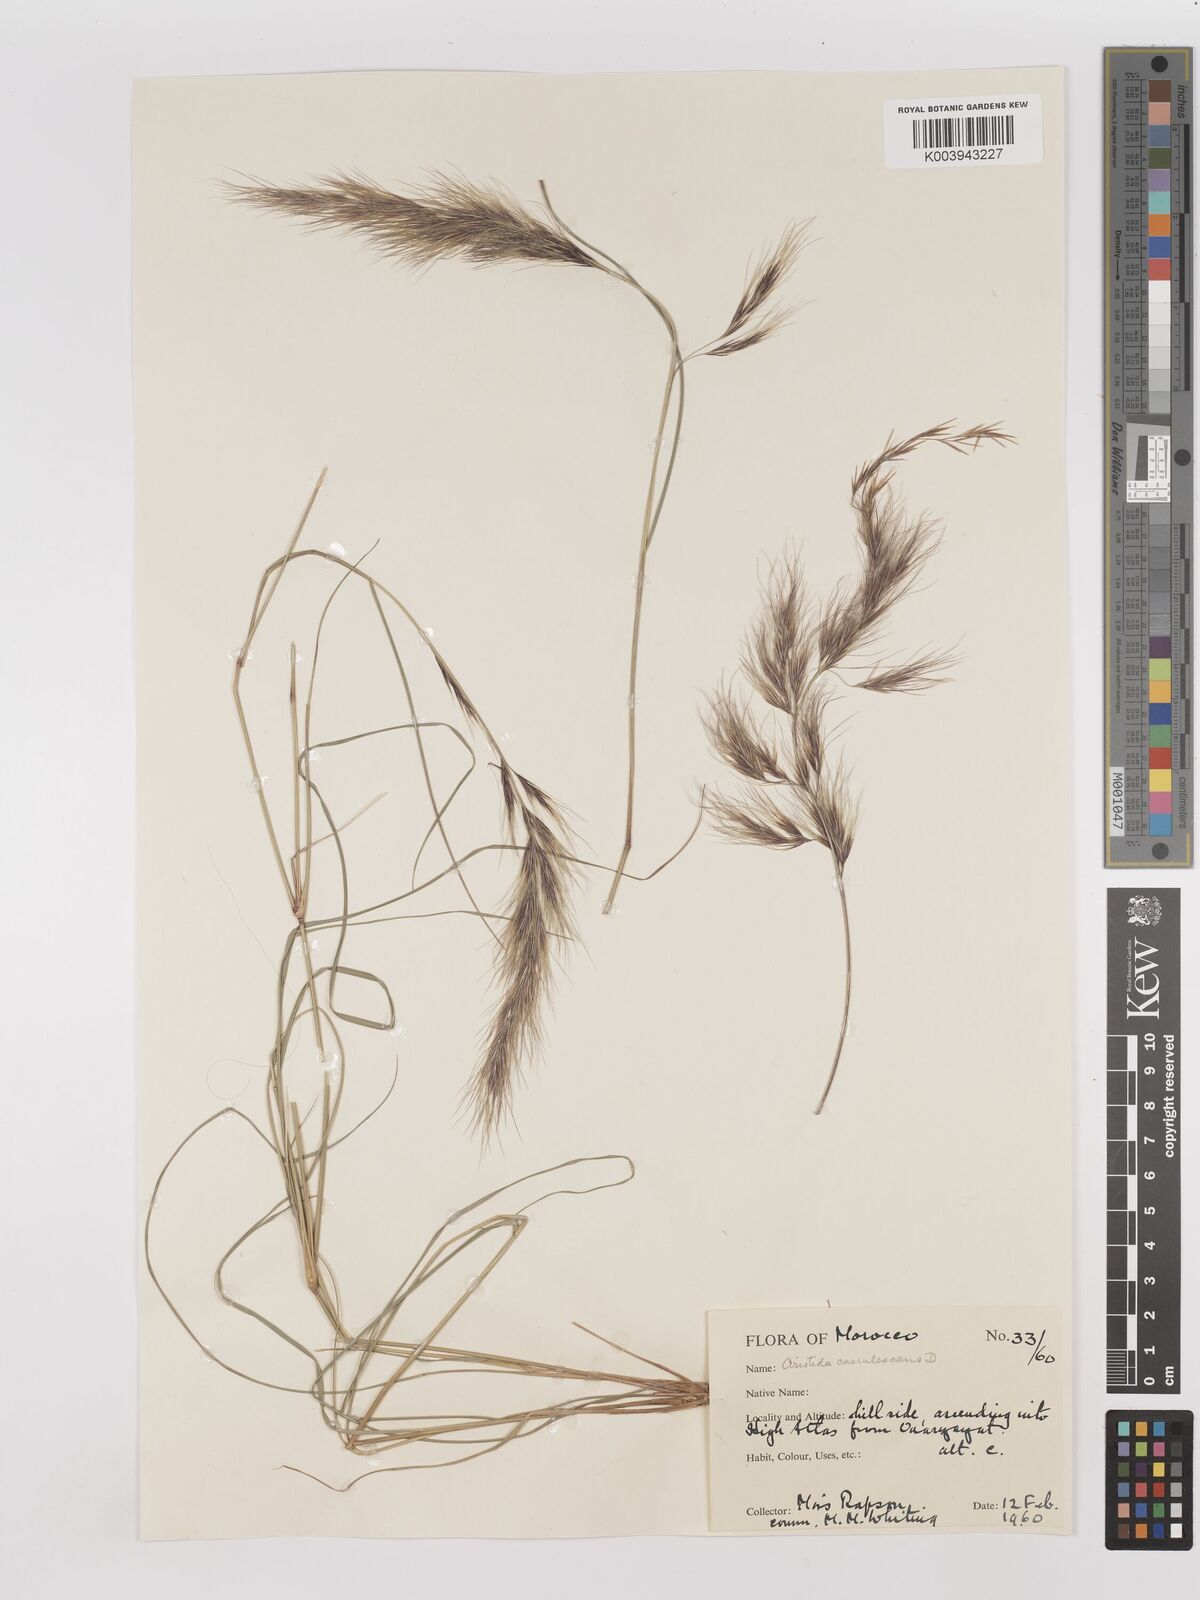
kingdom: Plantae
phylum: Tracheophyta
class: Liliopsida
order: Poales
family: Poaceae
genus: Aristida
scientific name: Aristida adscensionis
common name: Sixweeks threeawn
